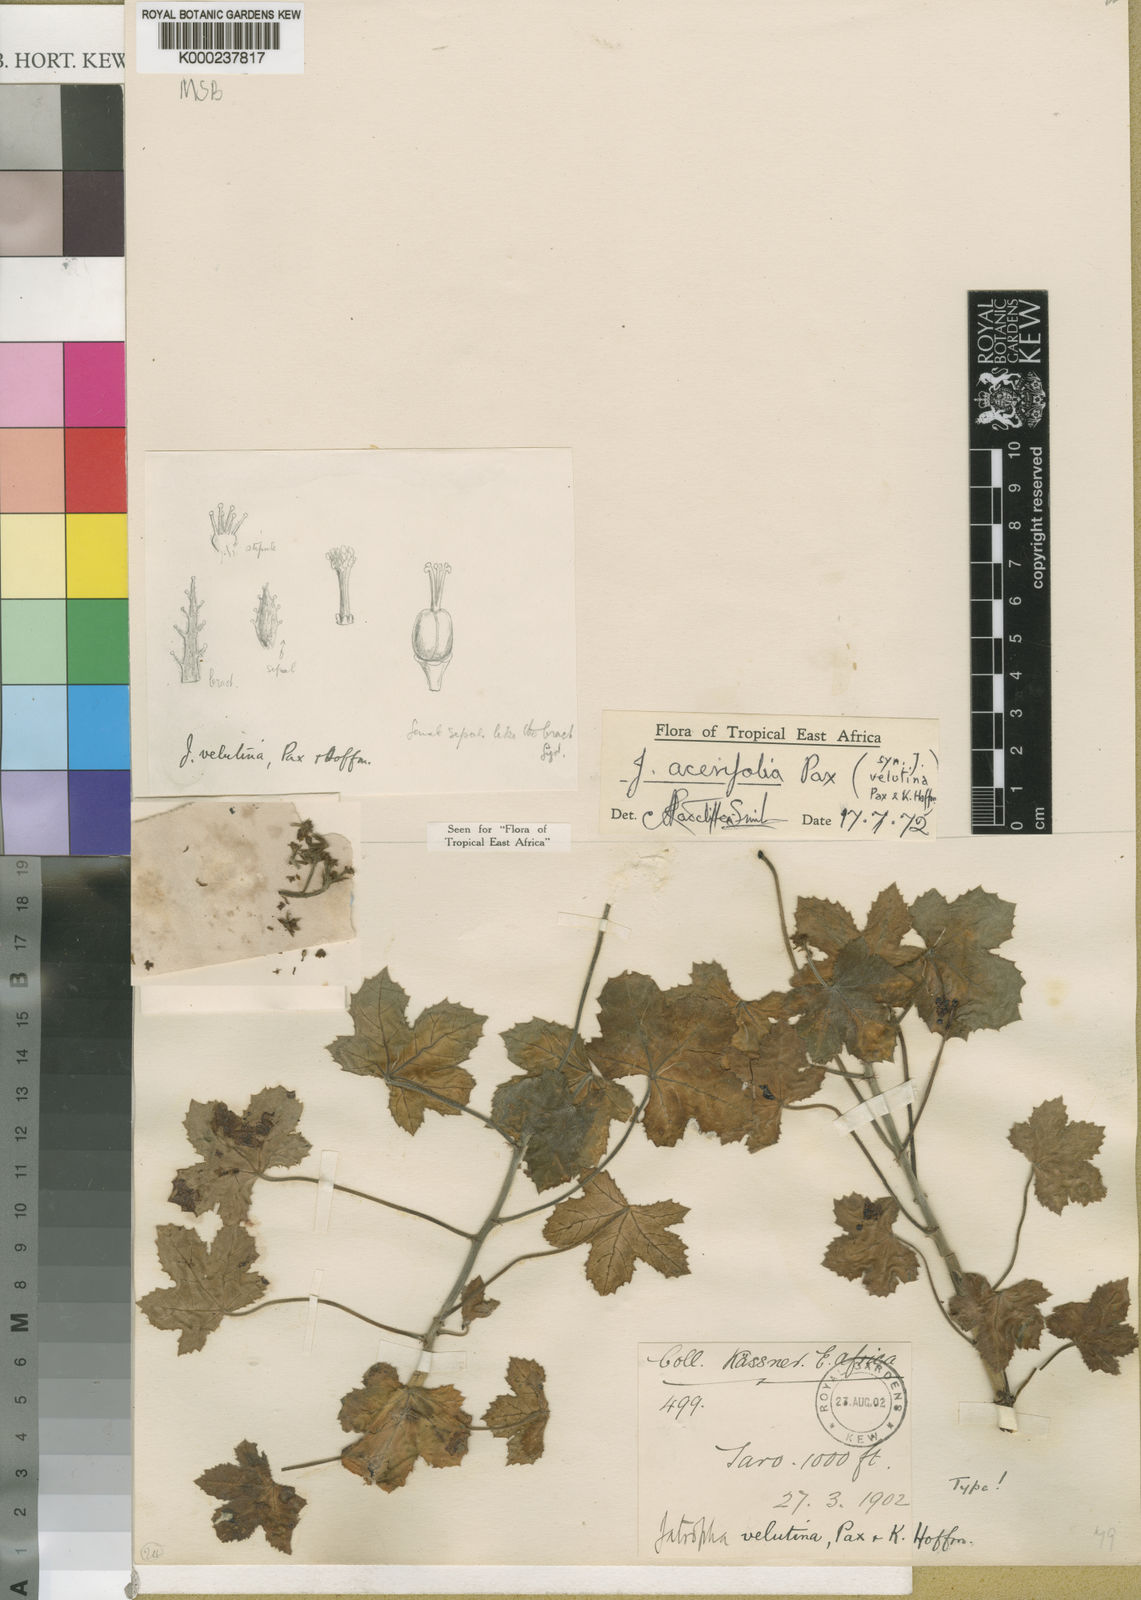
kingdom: Plantae
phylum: Tracheophyta
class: Magnoliopsida
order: Malpighiales
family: Euphorbiaceae
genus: Jatropha
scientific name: Jatropha velutina
